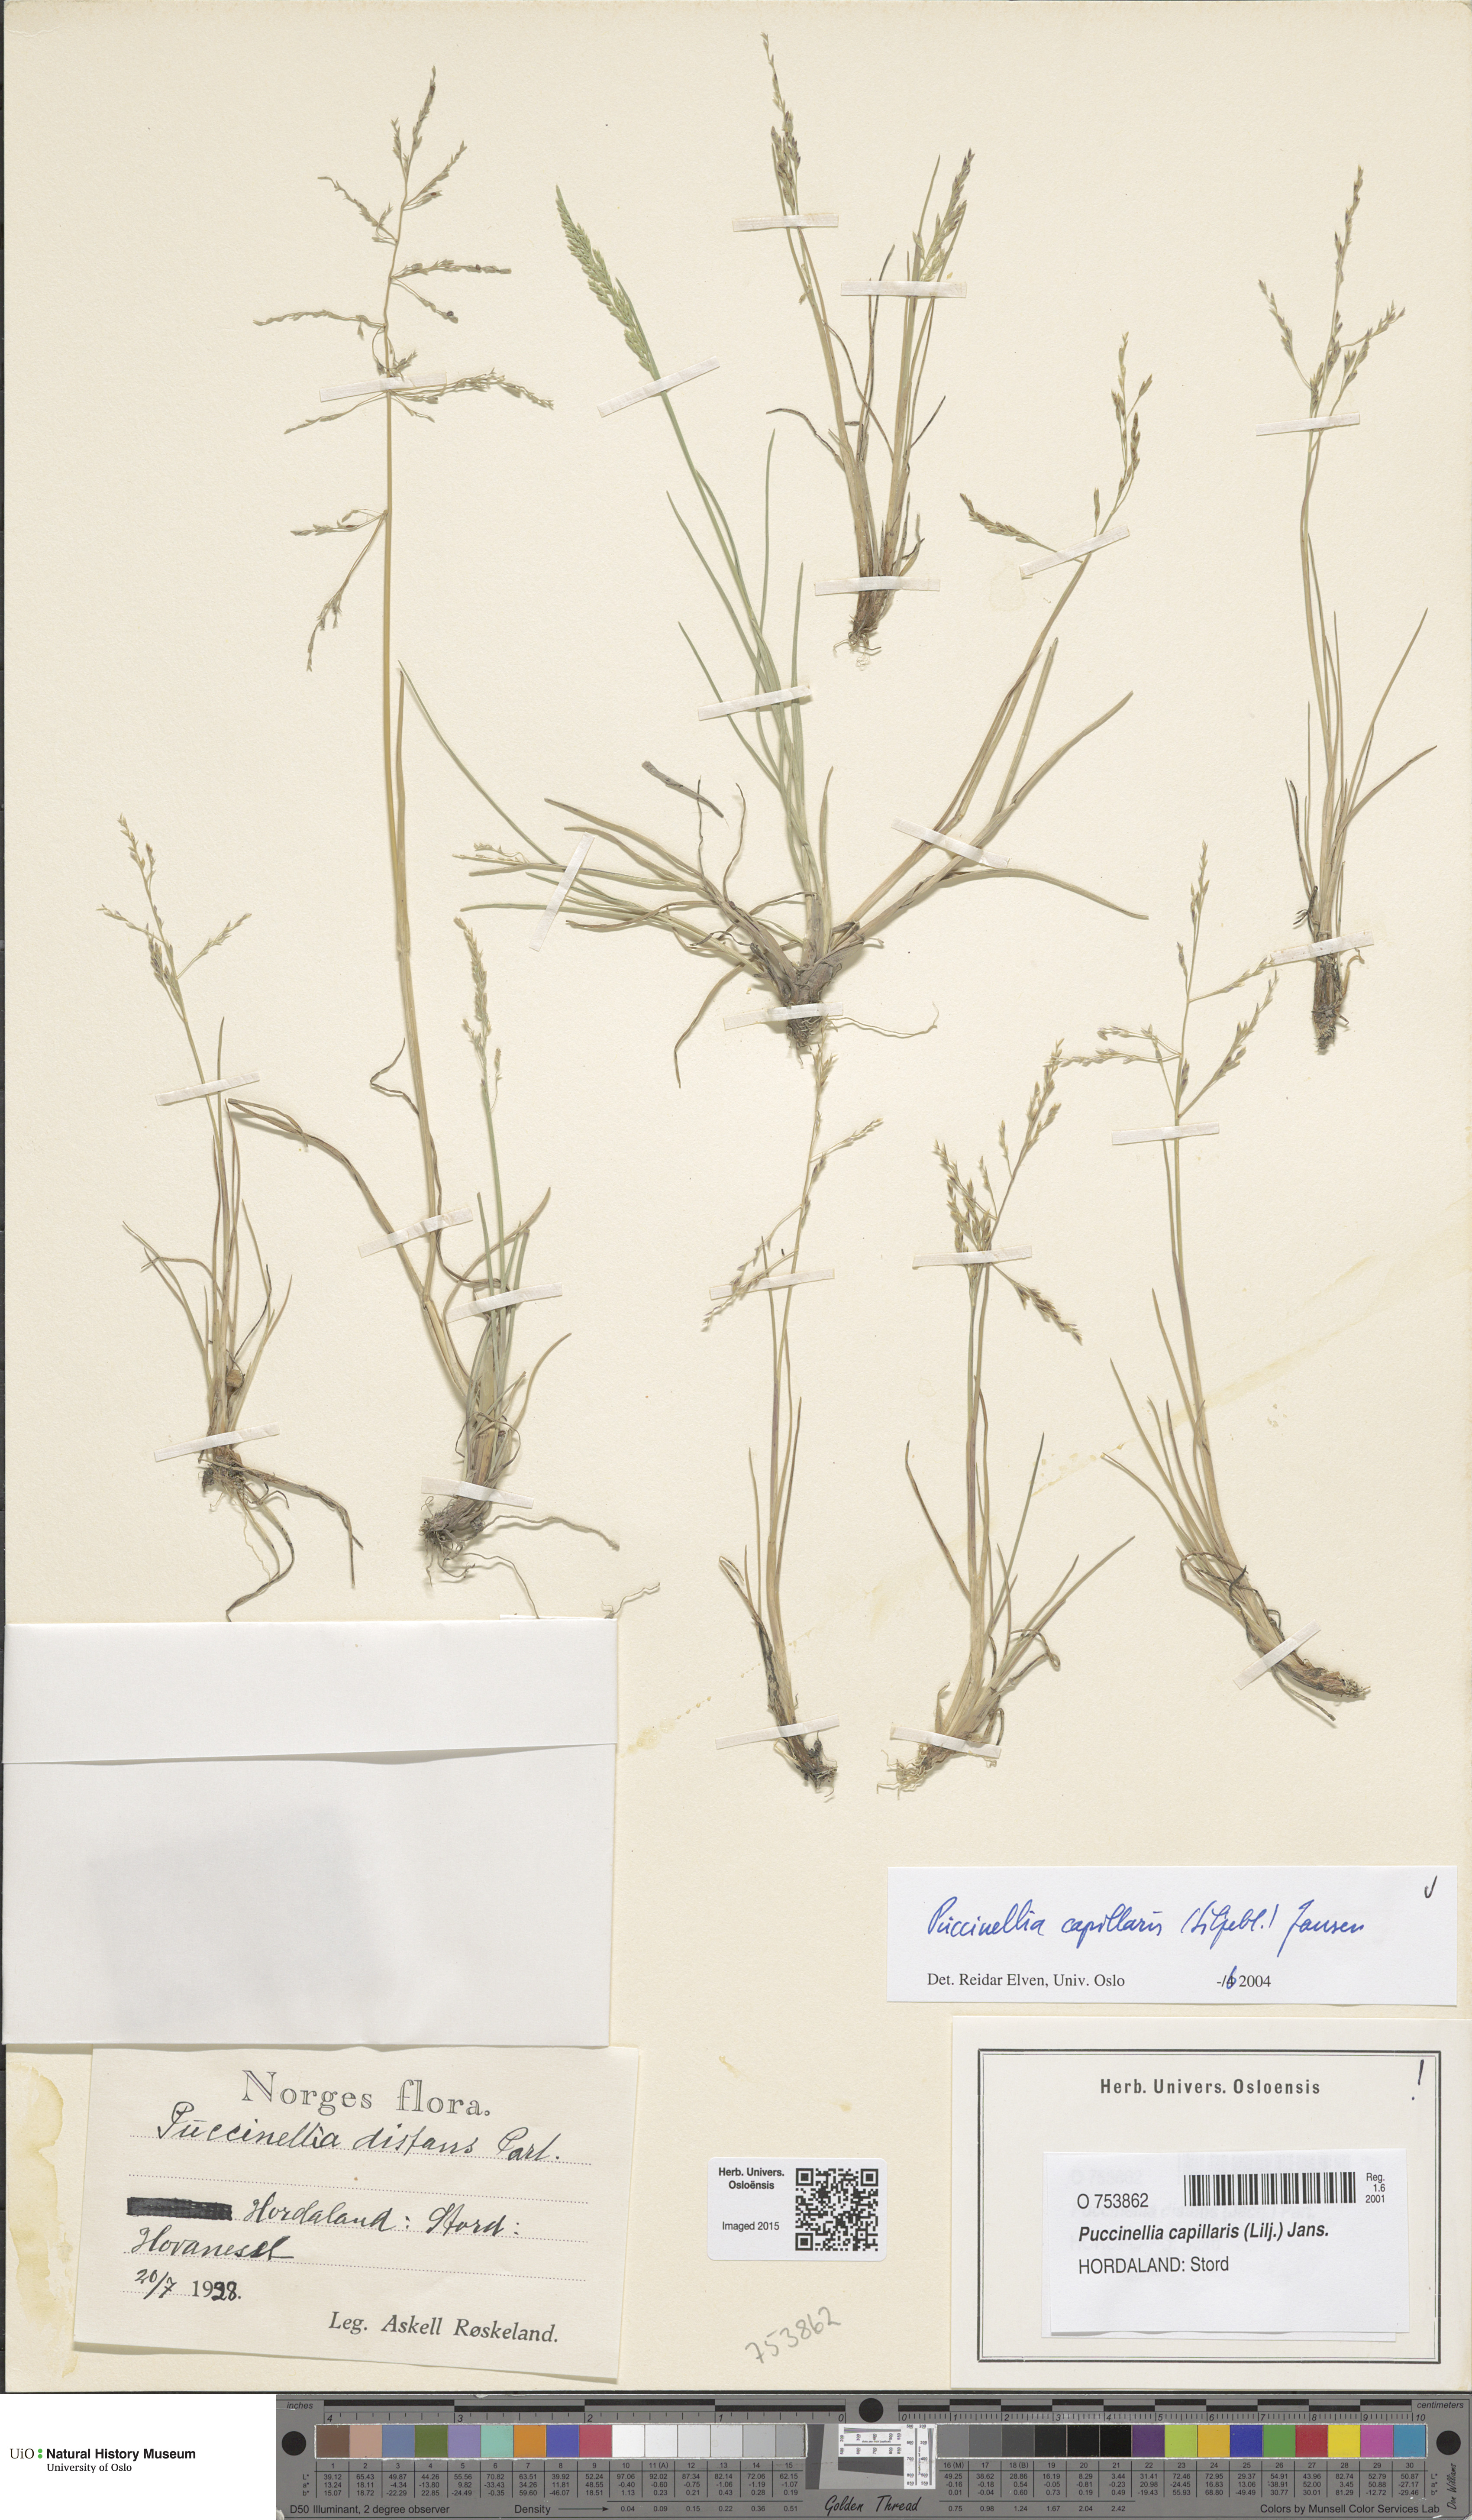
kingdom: Plantae
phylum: Tracheophyta
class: Liliopsida
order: Poales
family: Poaceae
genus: Puccinellia
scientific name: Puccinellia distans
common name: Weeping alkaligrass
